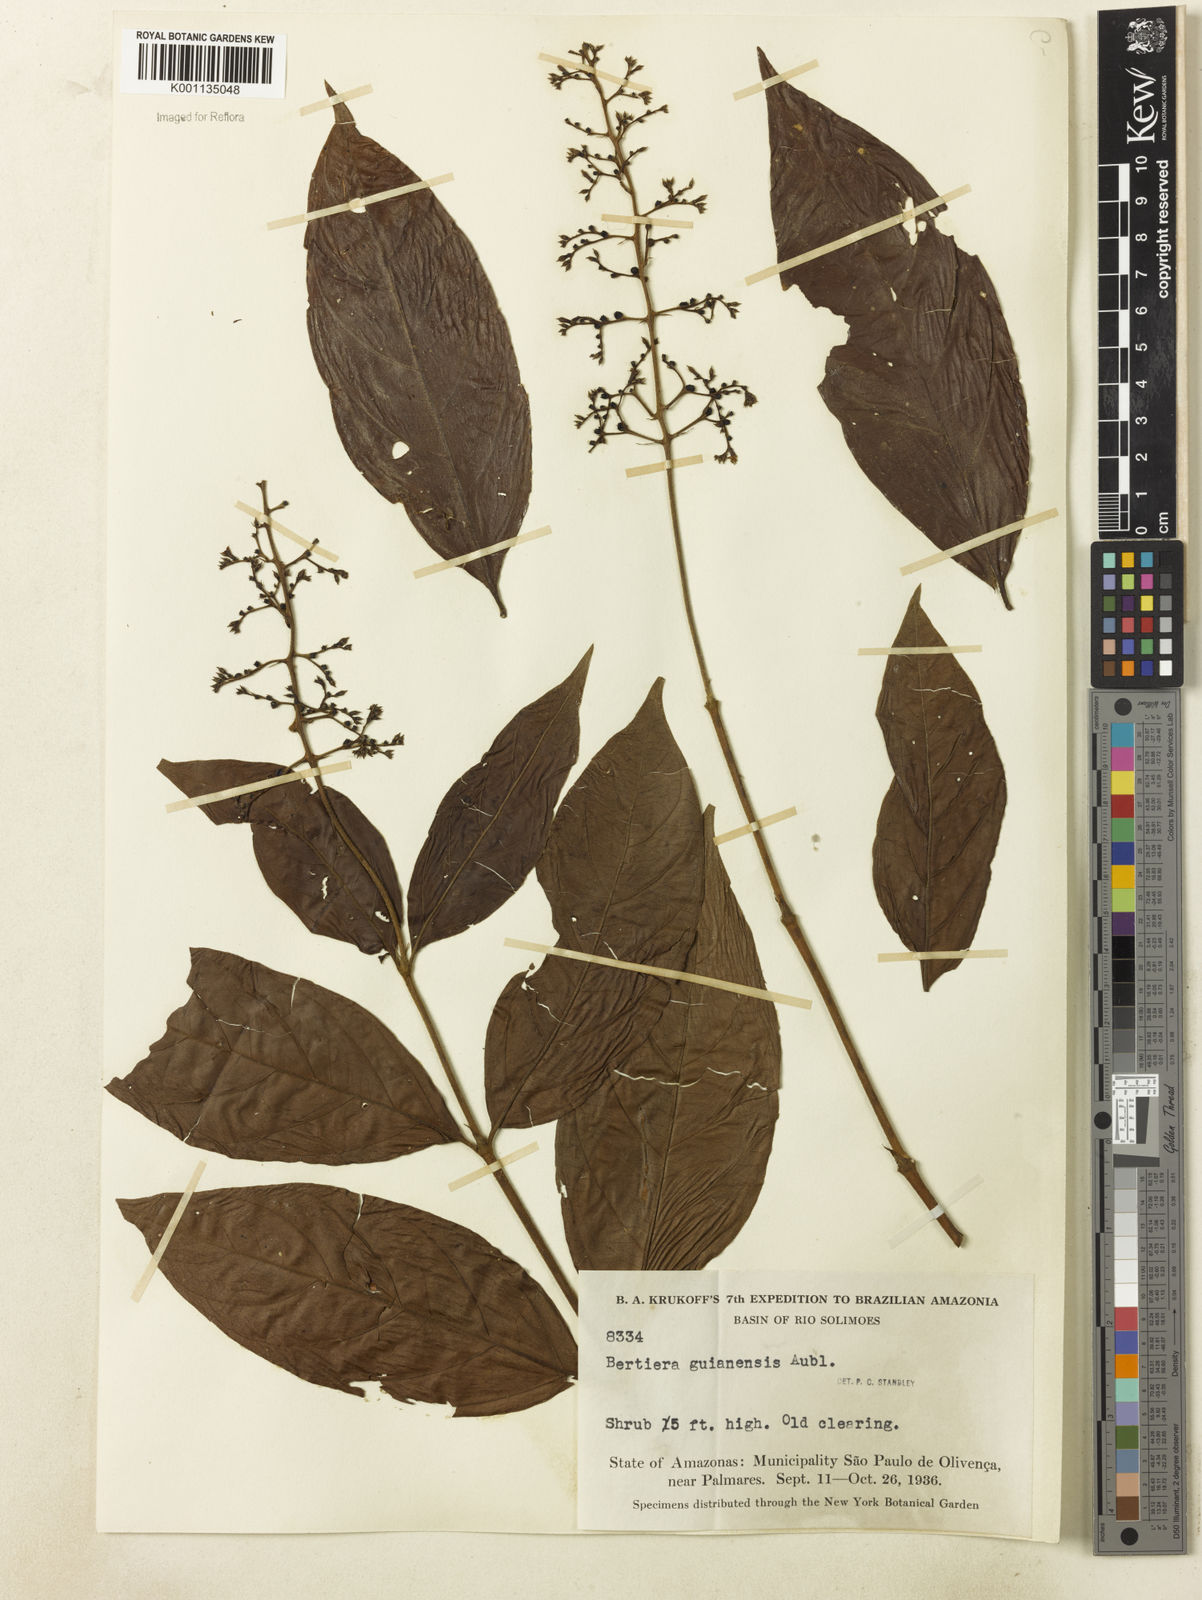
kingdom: Plantae
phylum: Tracheophyta
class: Magnoliopsida
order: Gentianales
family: Rubiaceae
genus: Bertiera
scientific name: Bertiera guianensis
